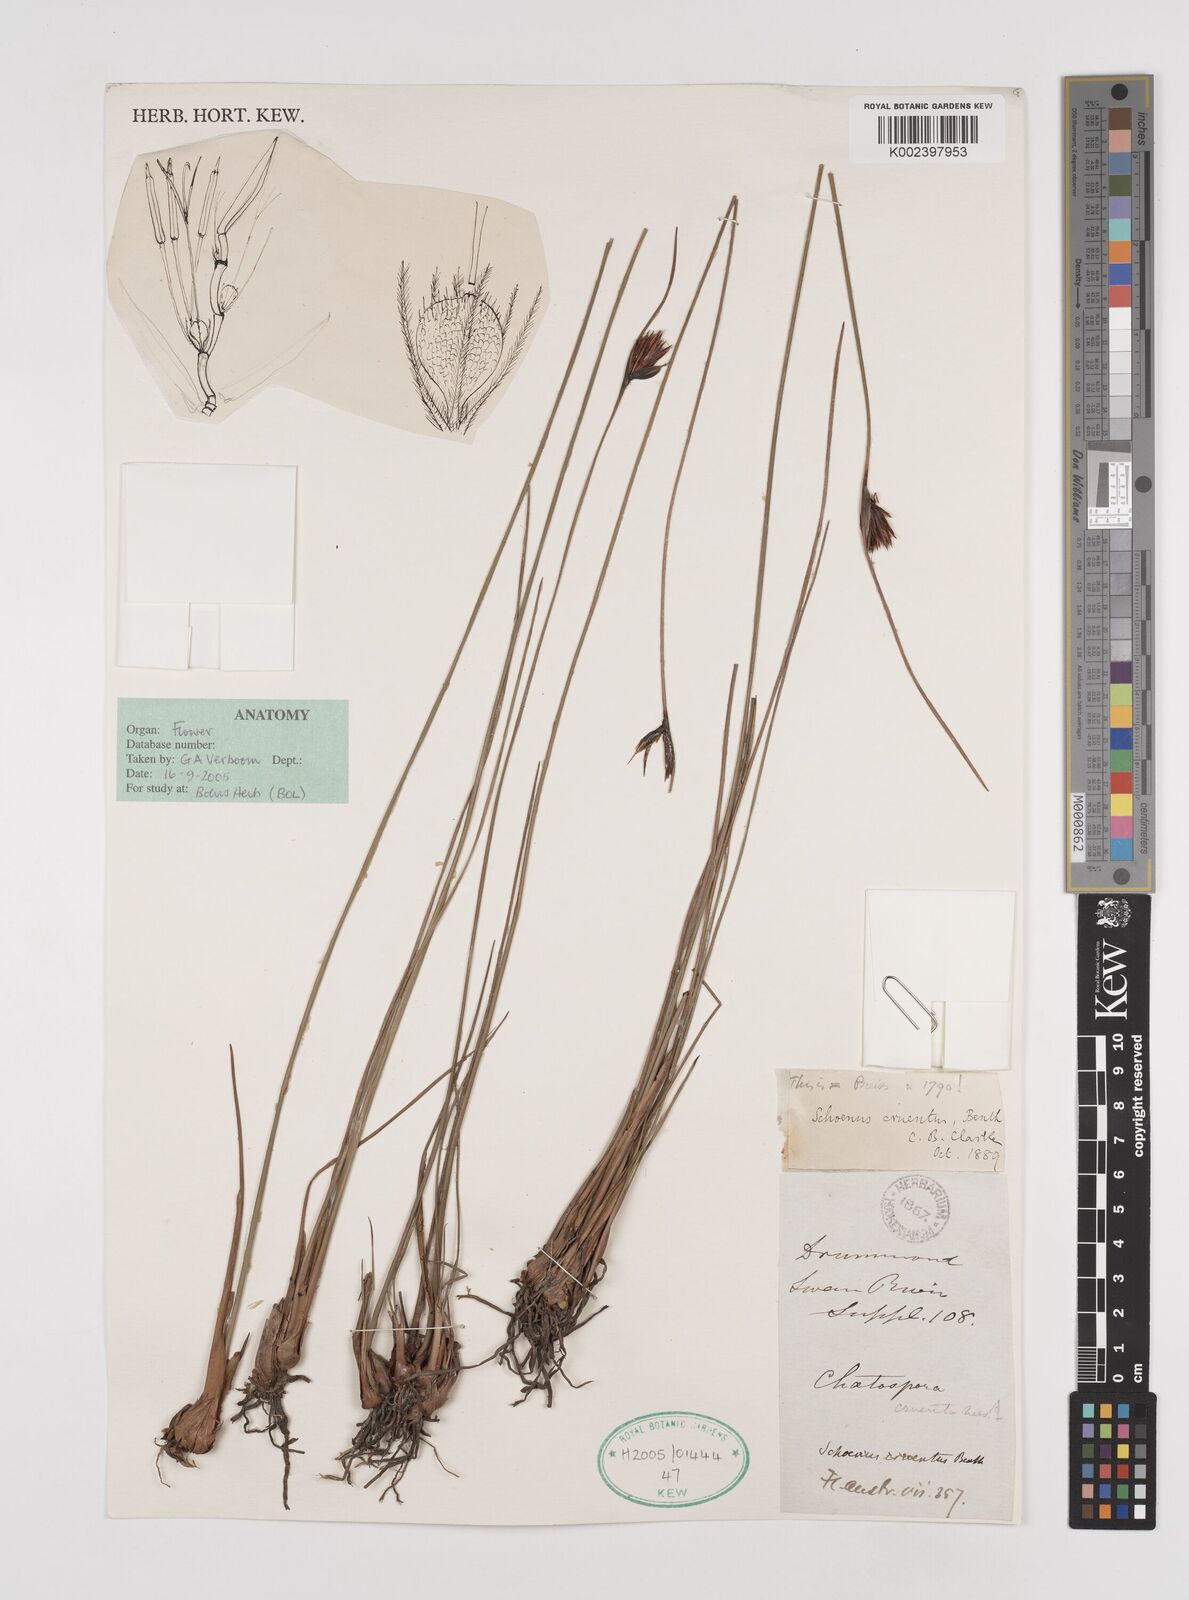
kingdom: Plantae
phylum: Tracheophyta
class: Liliopsida
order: Poales
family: Cyperaceae
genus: Schoenus
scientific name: Schoenus cruentus
